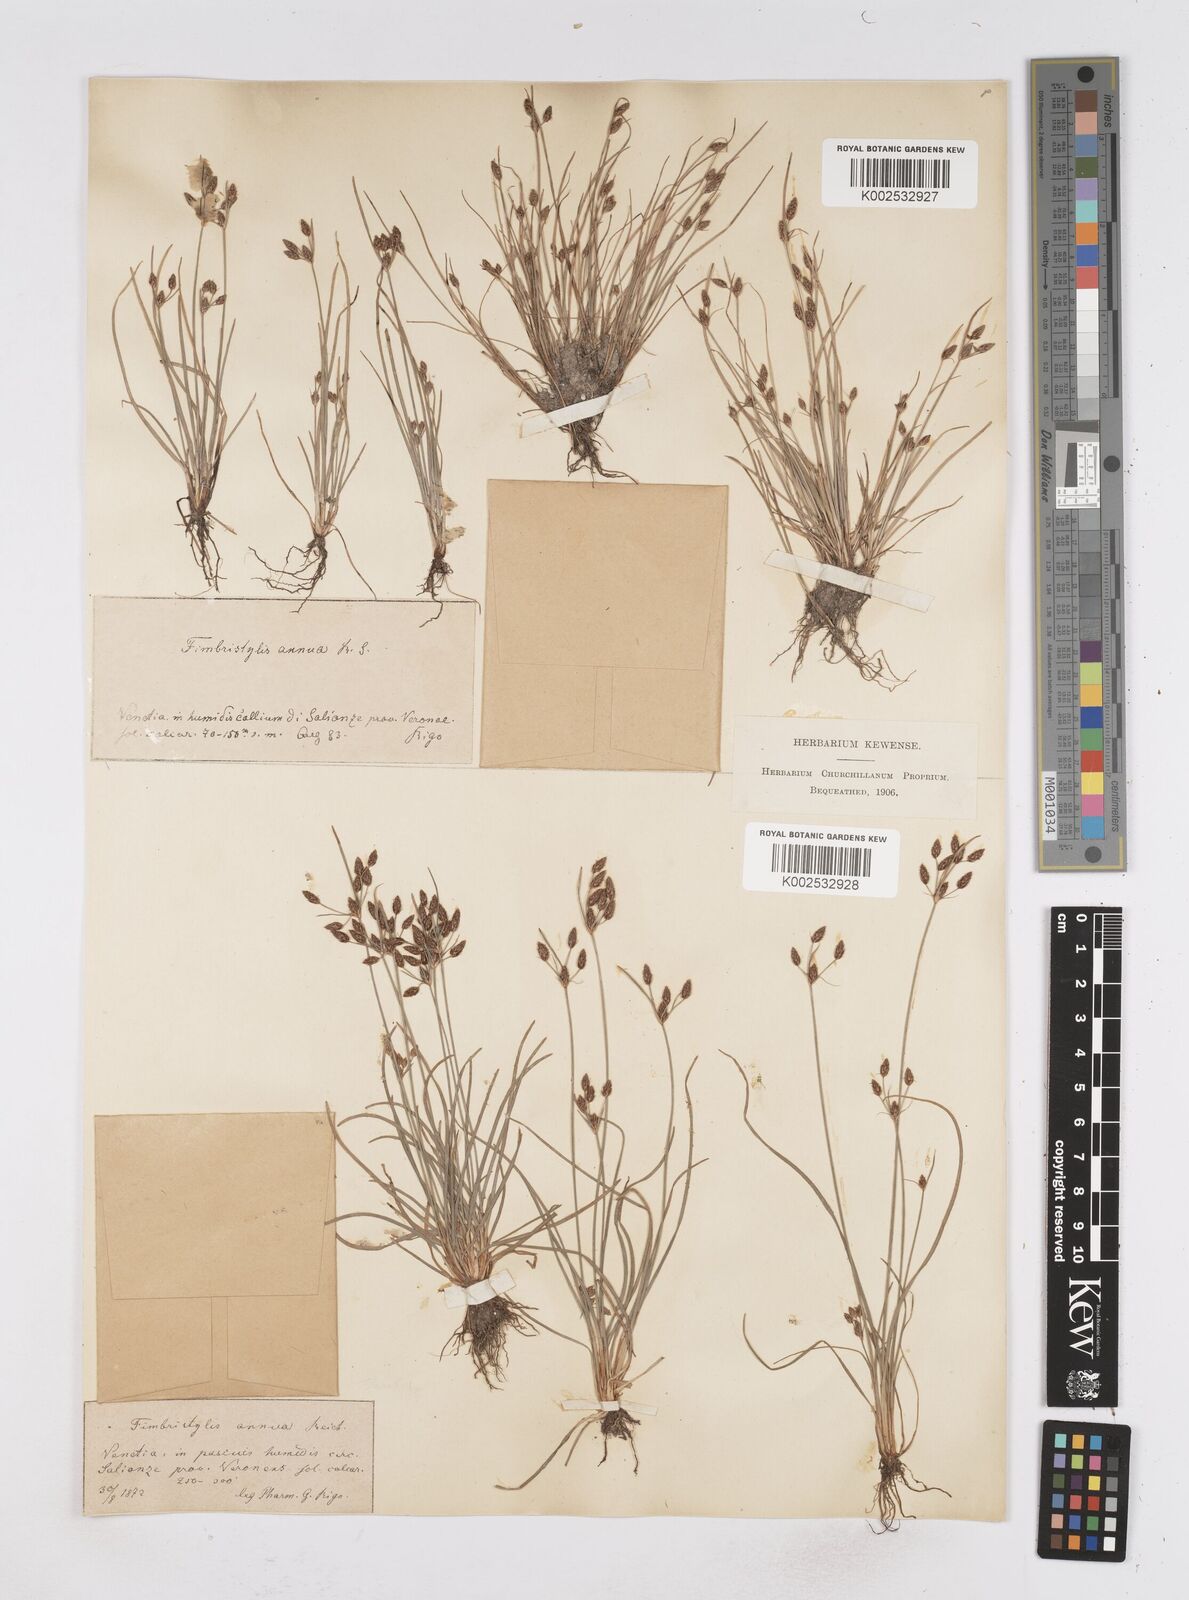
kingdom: Plantae
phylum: Tracheophyta
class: Liliopsida
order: Poales
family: Cyperaceae
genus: Fimbristylis
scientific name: Fimbristylis dichotoma
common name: Forked fimbry
